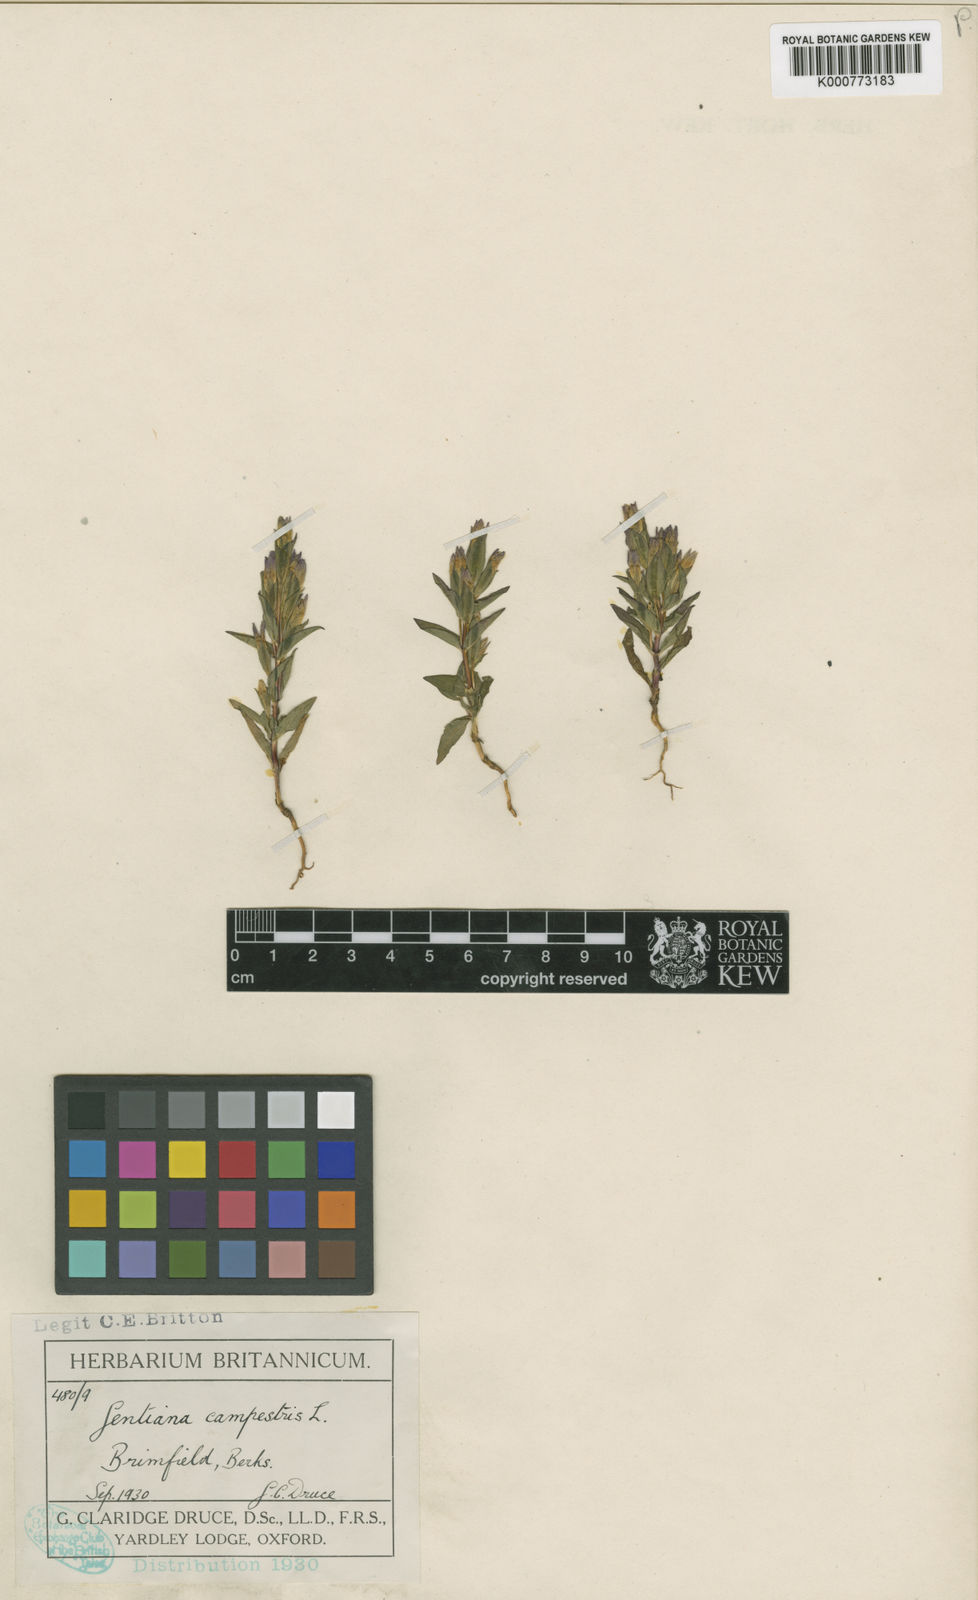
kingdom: Plantae
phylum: Tracheophyta
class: Magnoliopsida
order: Gentianales
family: Gentianaceae
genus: Gentianella
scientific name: Gentianella
